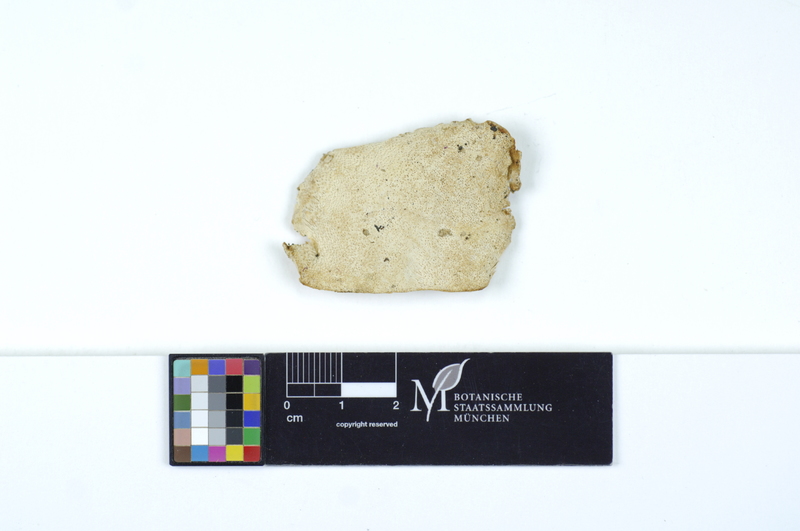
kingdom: Plantae
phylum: Tracheophyta
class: Pinopsida
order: Pinales
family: Pinaceae
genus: Larix
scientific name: Larix
